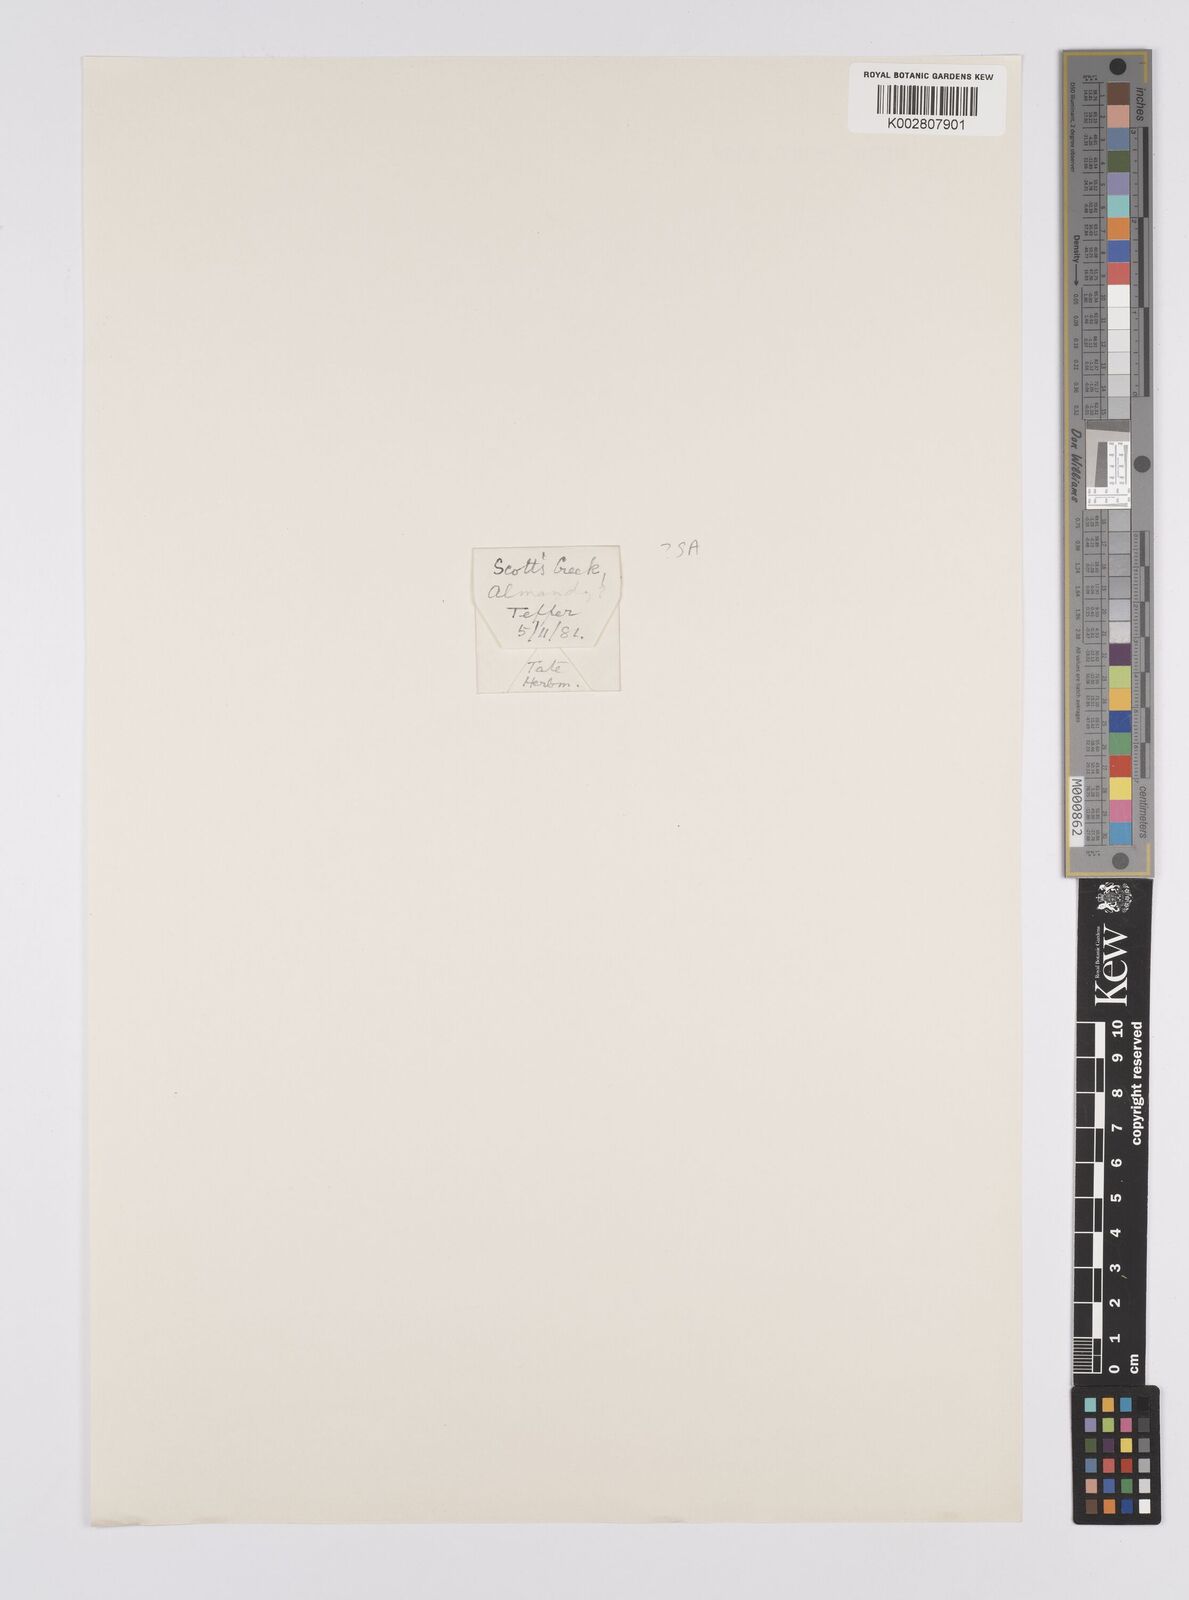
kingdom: Plantae
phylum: Tracheophyta
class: Liliopsida
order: Poales
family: Cyperaceae
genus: Carex
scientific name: Carex appressa
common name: Tussock sedge
